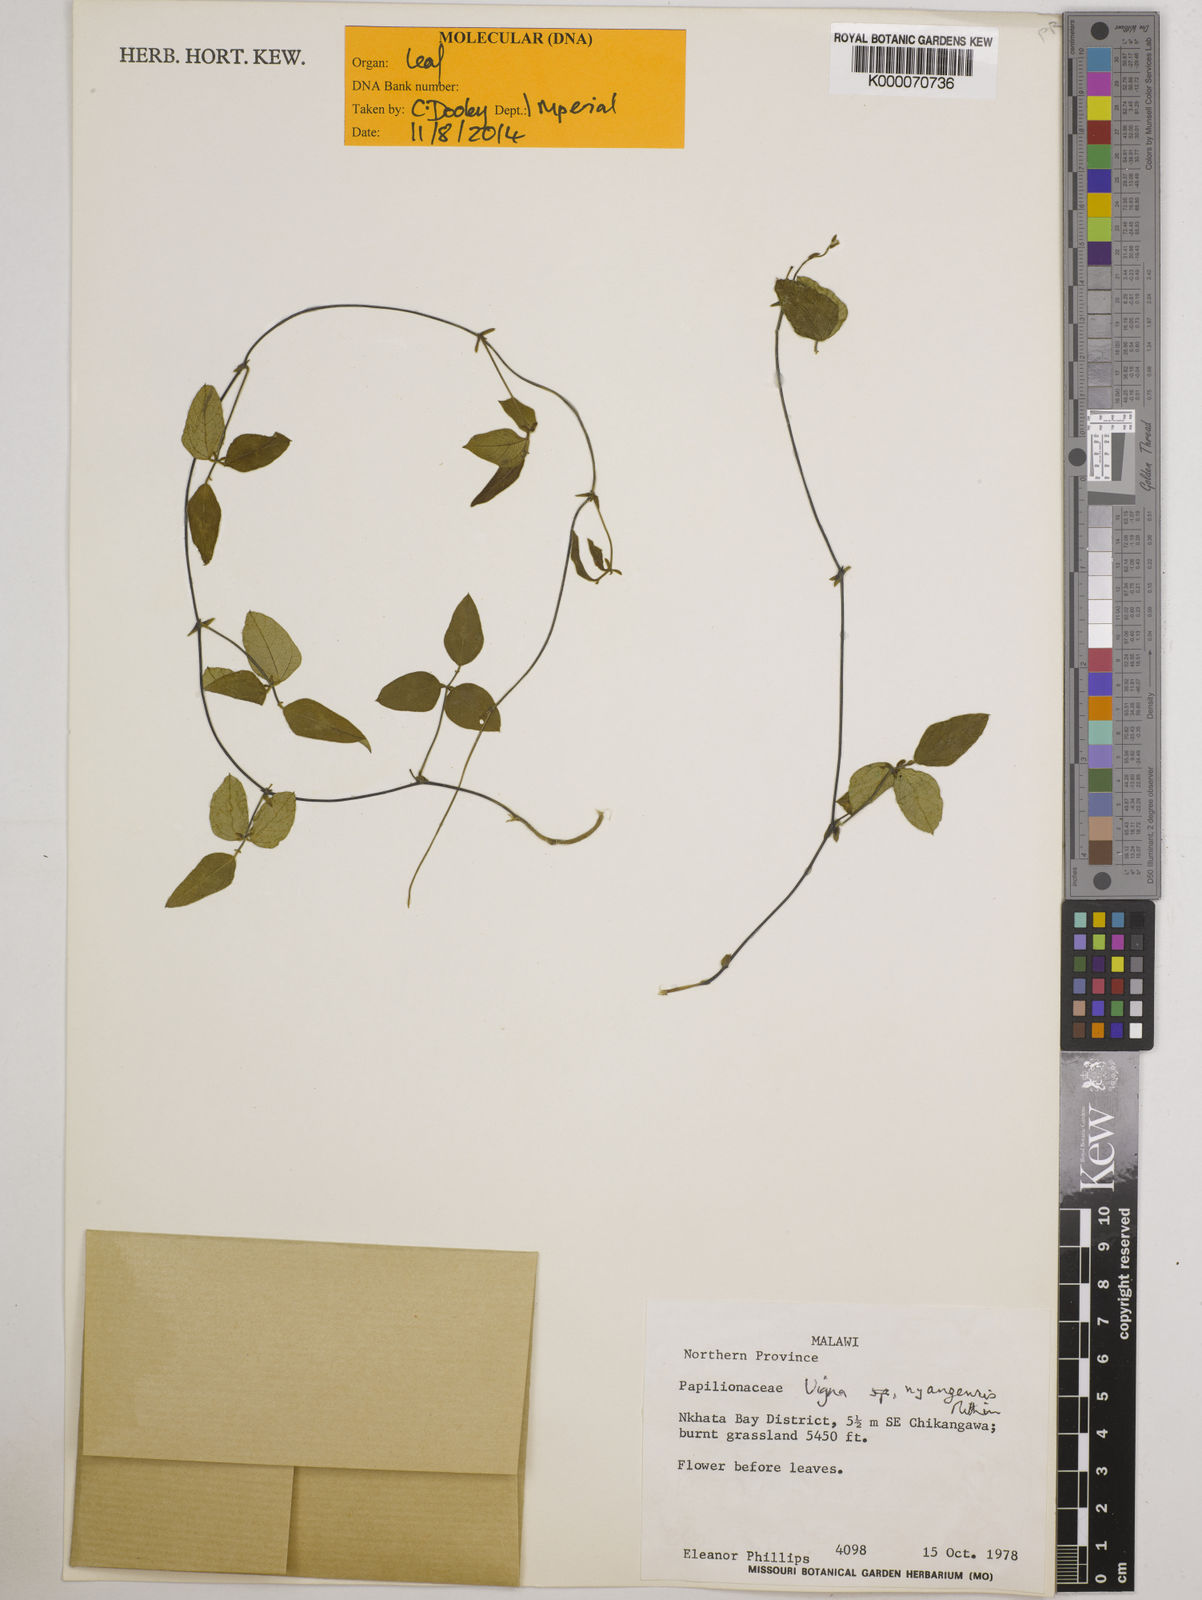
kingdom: Plantae
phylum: Tracheophyta
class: Magnoliopsida
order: Fabales
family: Fabaceae
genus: Vigna
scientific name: Vigna nyangensis
